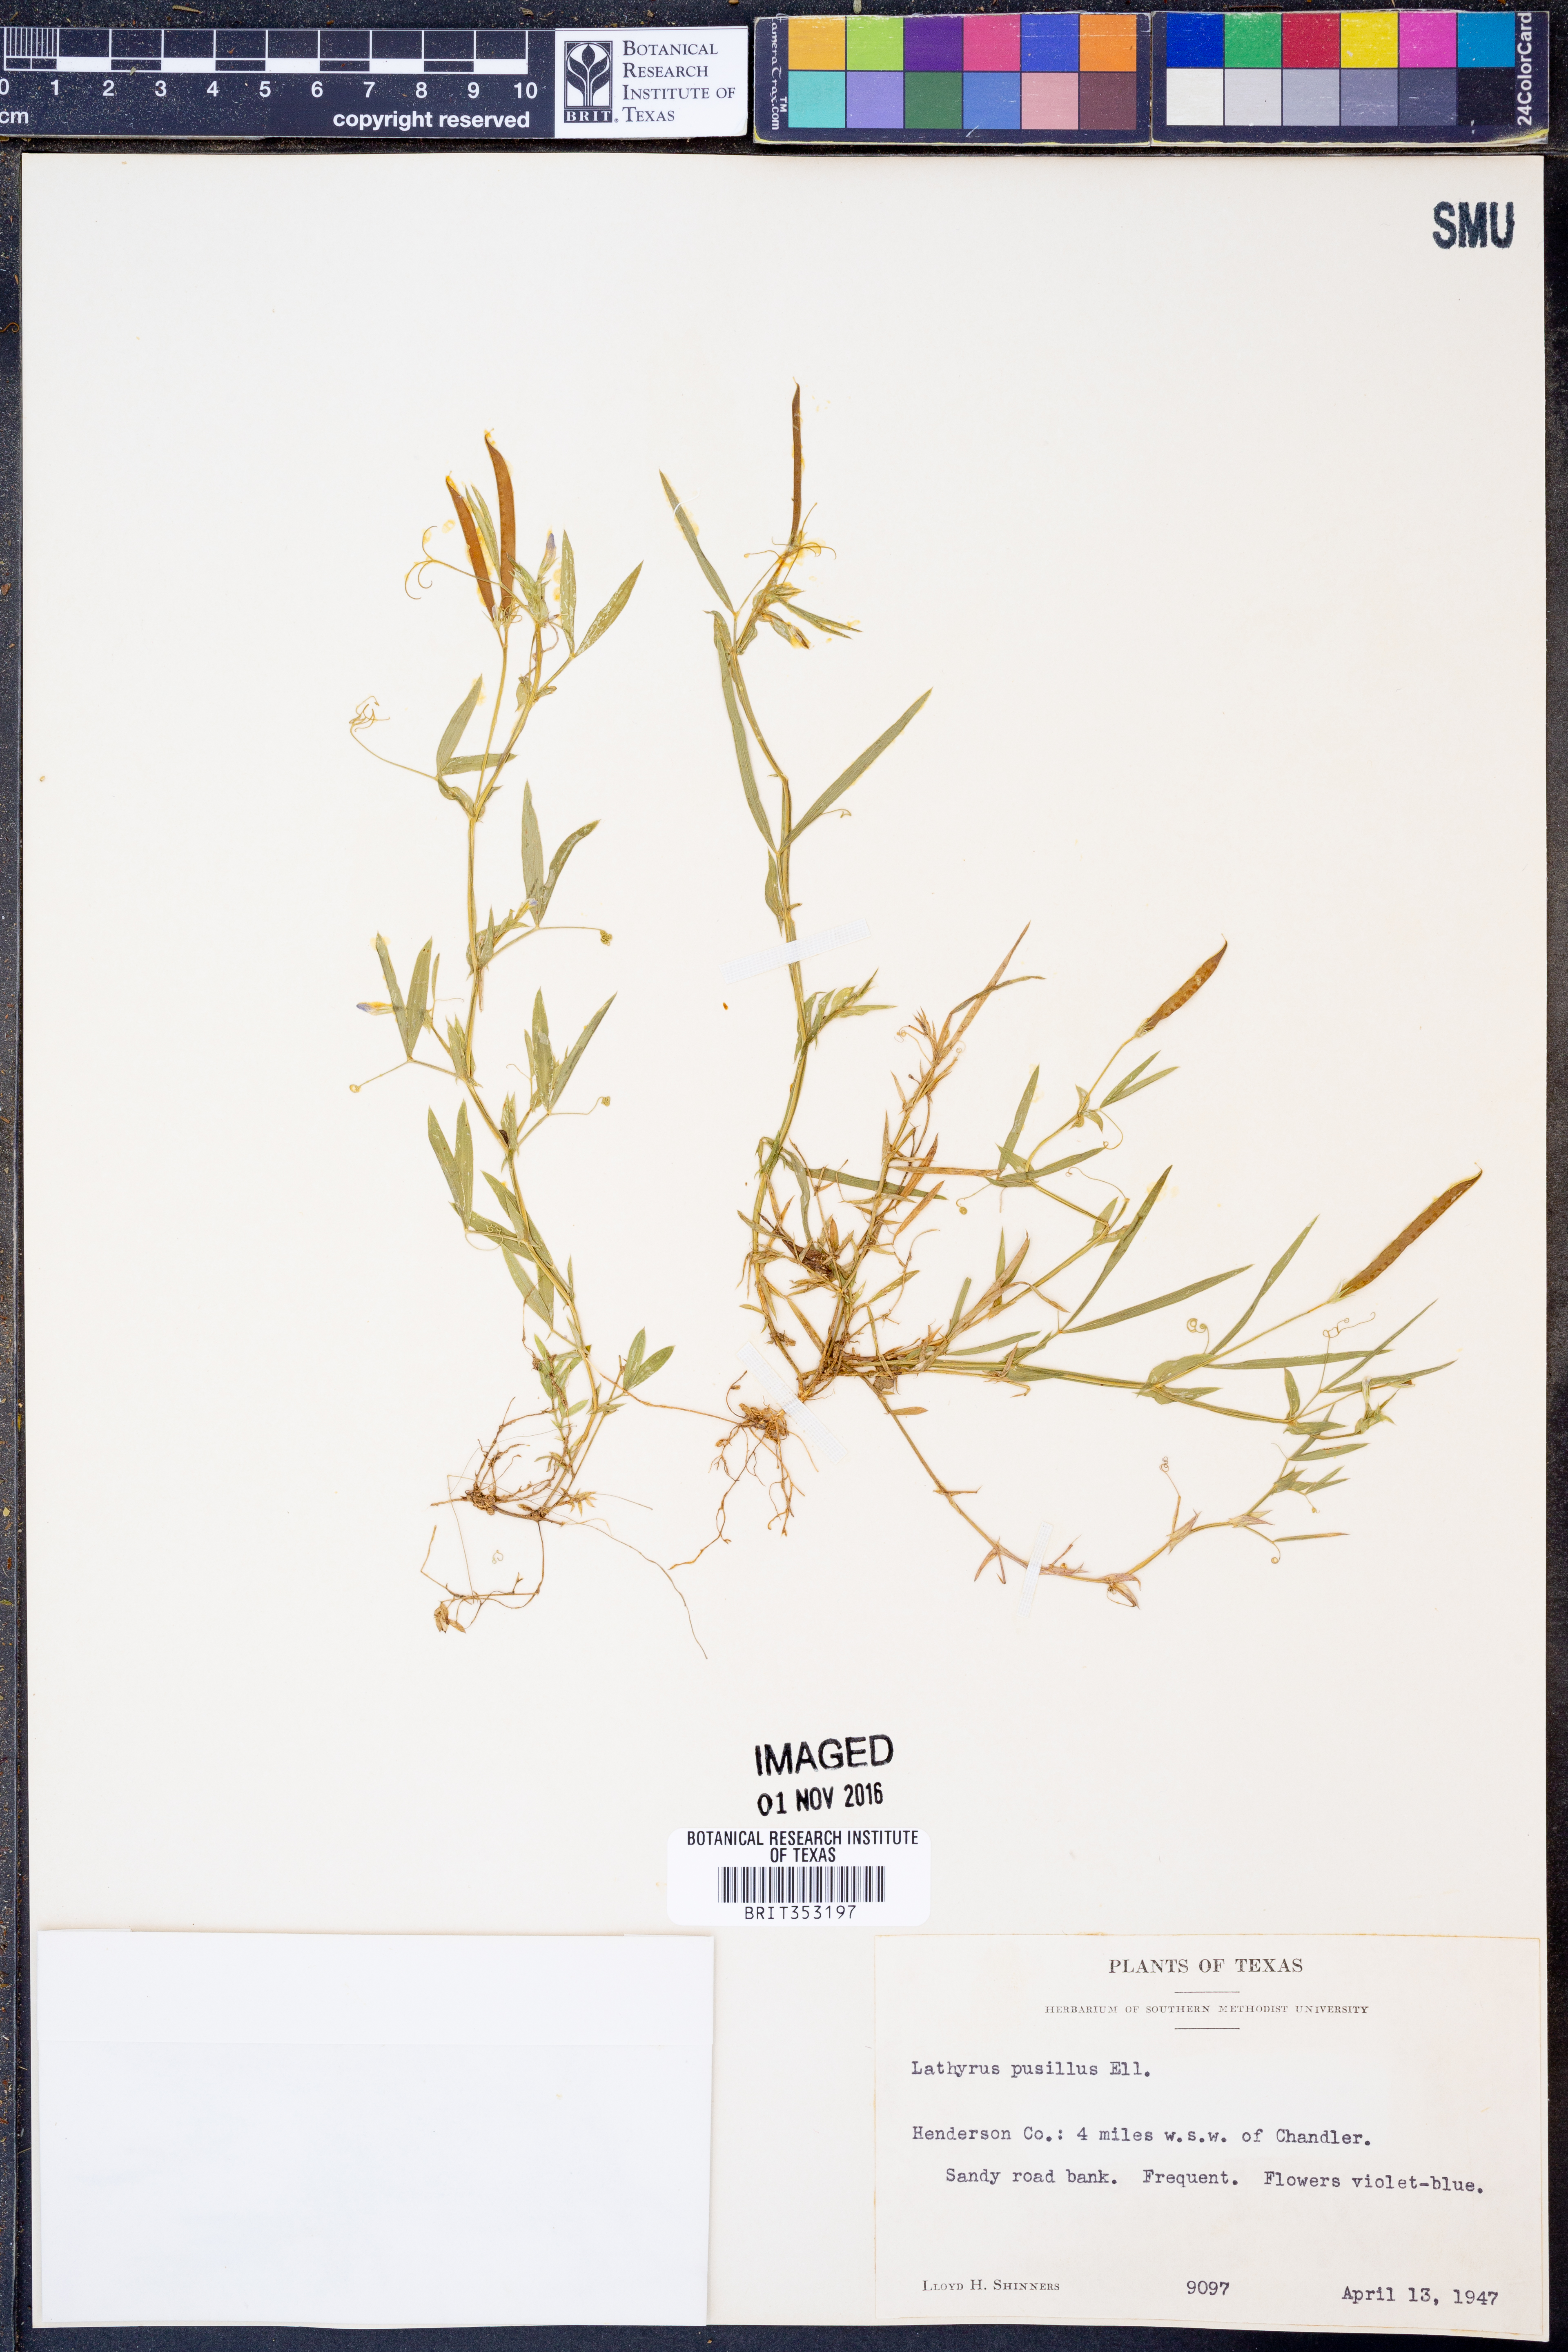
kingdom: Plantae
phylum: Tracheophyta
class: Magnoliopsida
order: Fabales
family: Fabaceae
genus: Lathyrus
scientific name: Lathyrus pusillus
